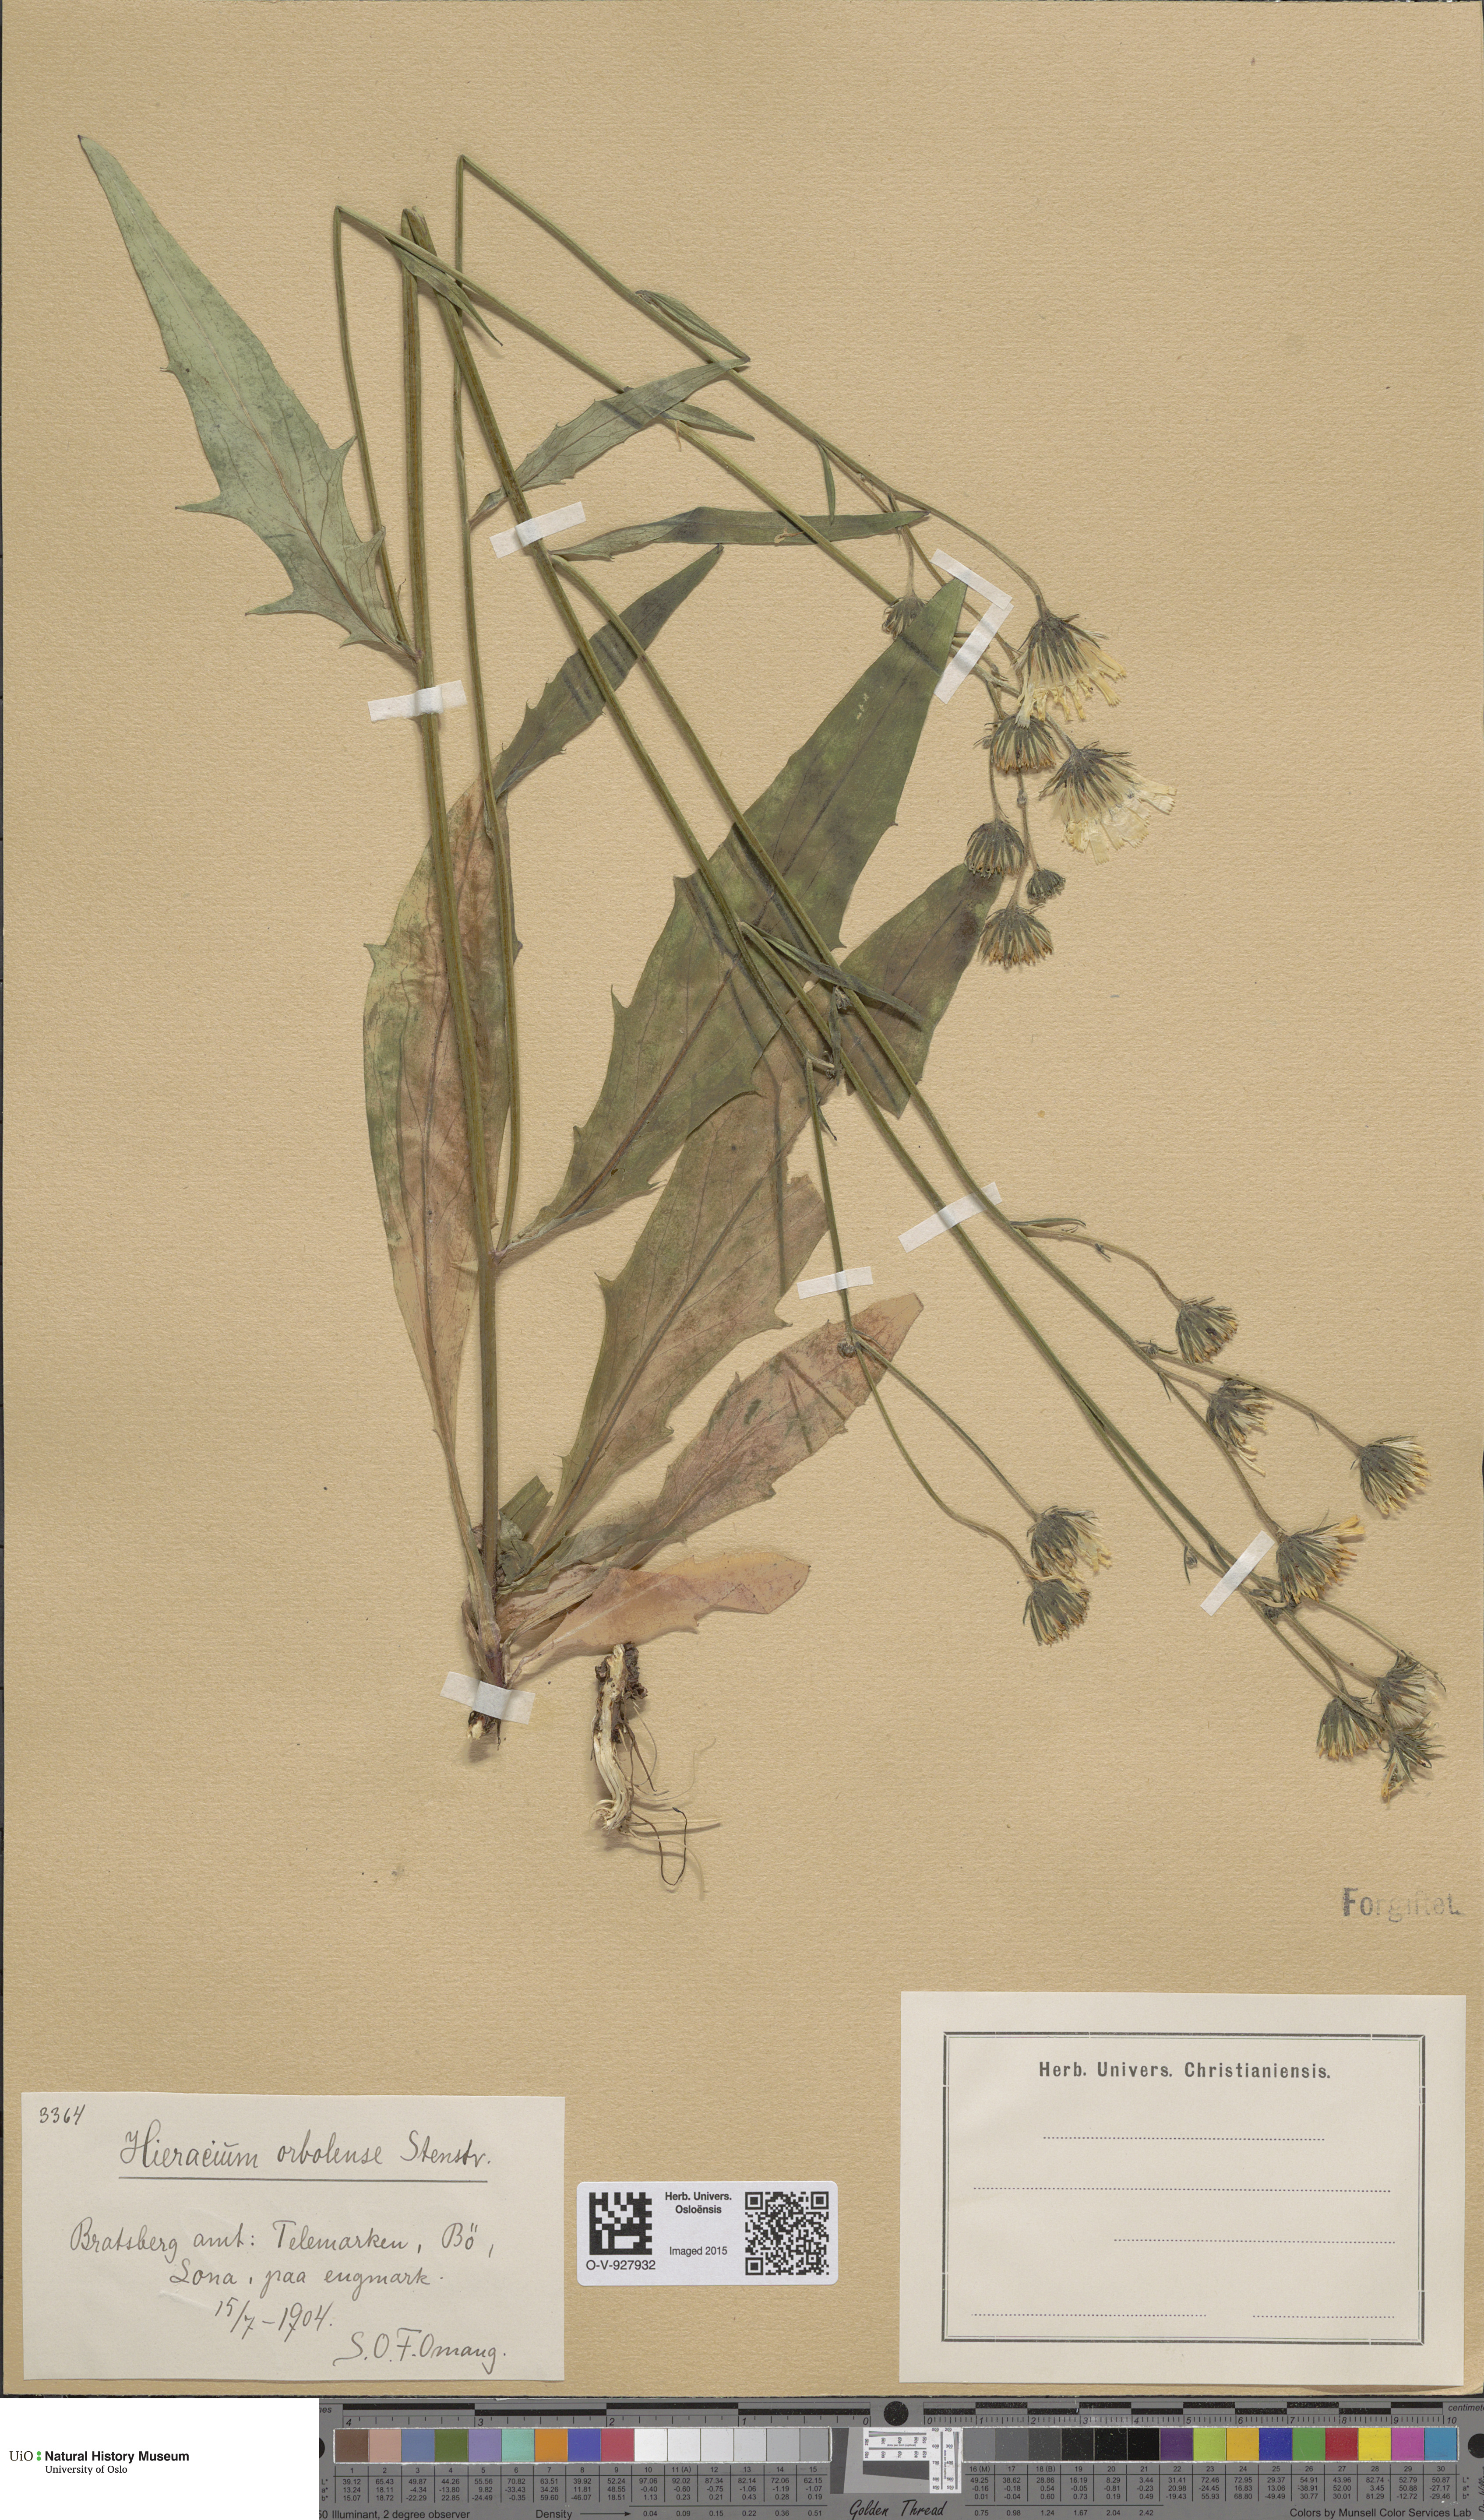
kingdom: Plantae
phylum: Tracheophyta
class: Magnoliopsida
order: Asterales
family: Asteraceae
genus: Hieracium
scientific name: Hieracium orbolense
